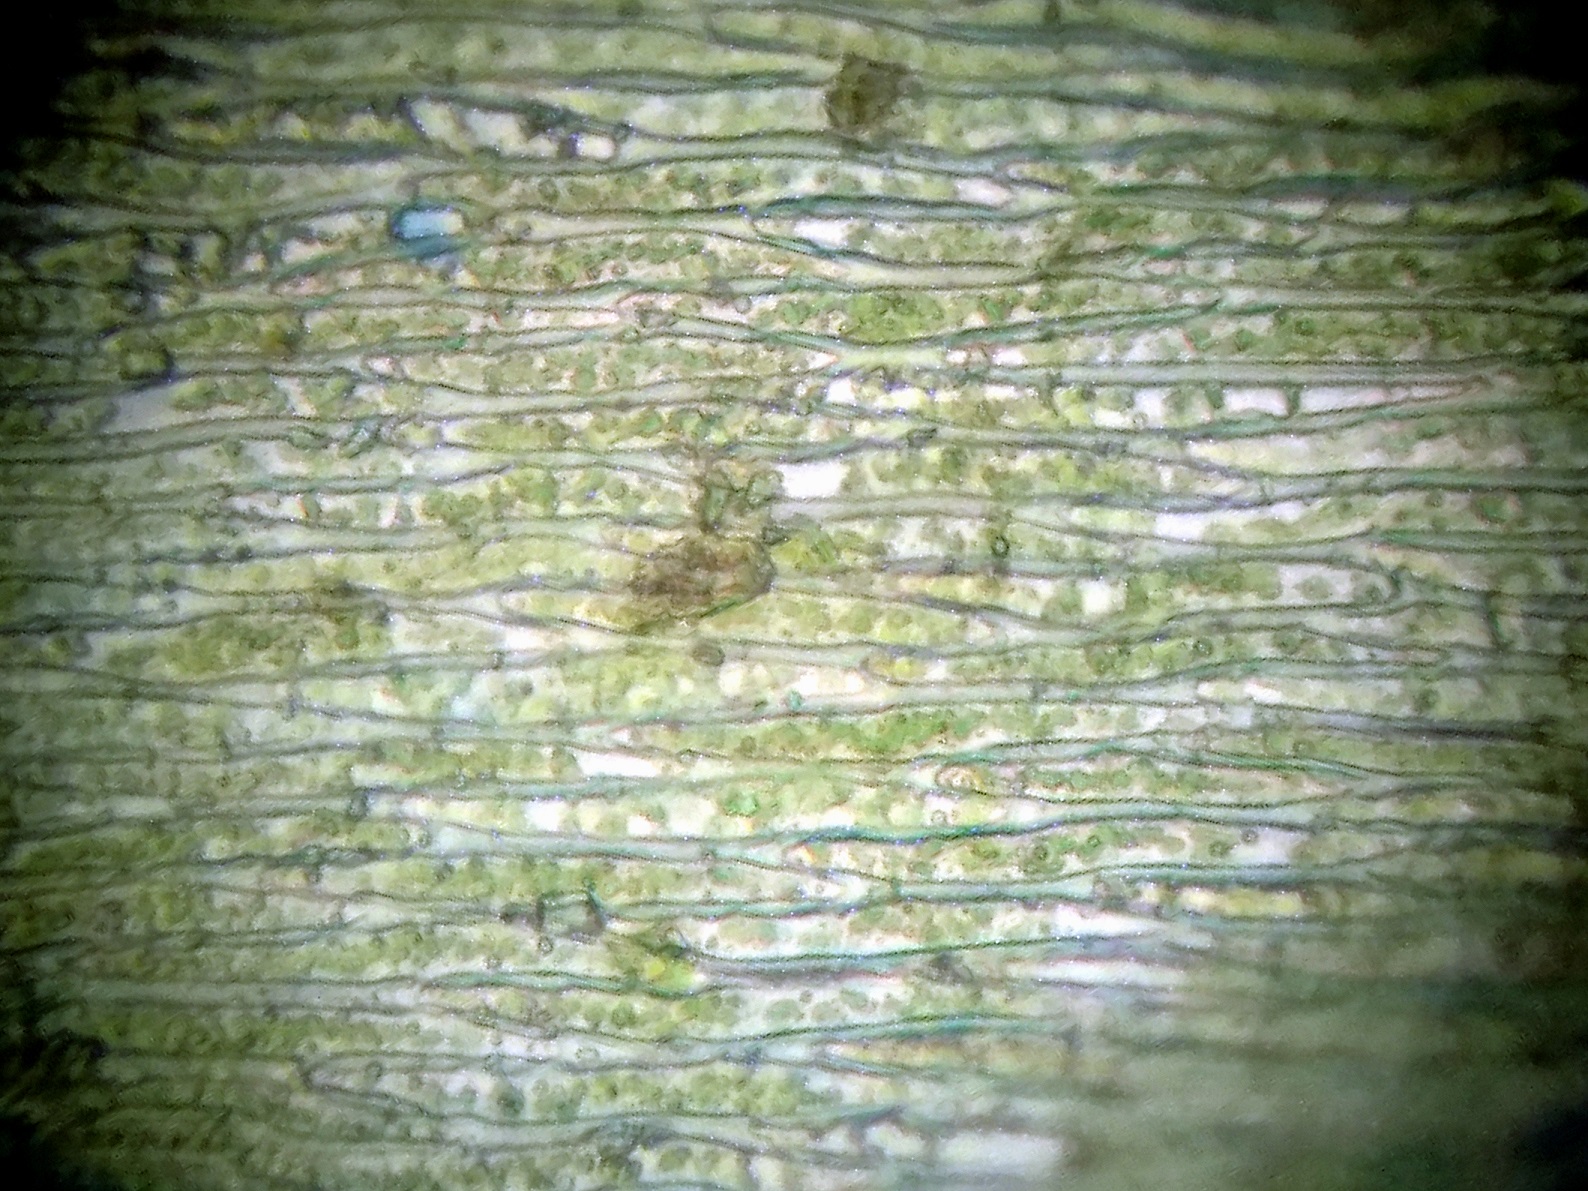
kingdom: Plantae
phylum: Bryophyta
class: Bryopsida
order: Hypnales
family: Plagiotheciaceae
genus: Plagiothecium
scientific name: Plagiothecium cavifolium
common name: Hulbladet tæppemos
